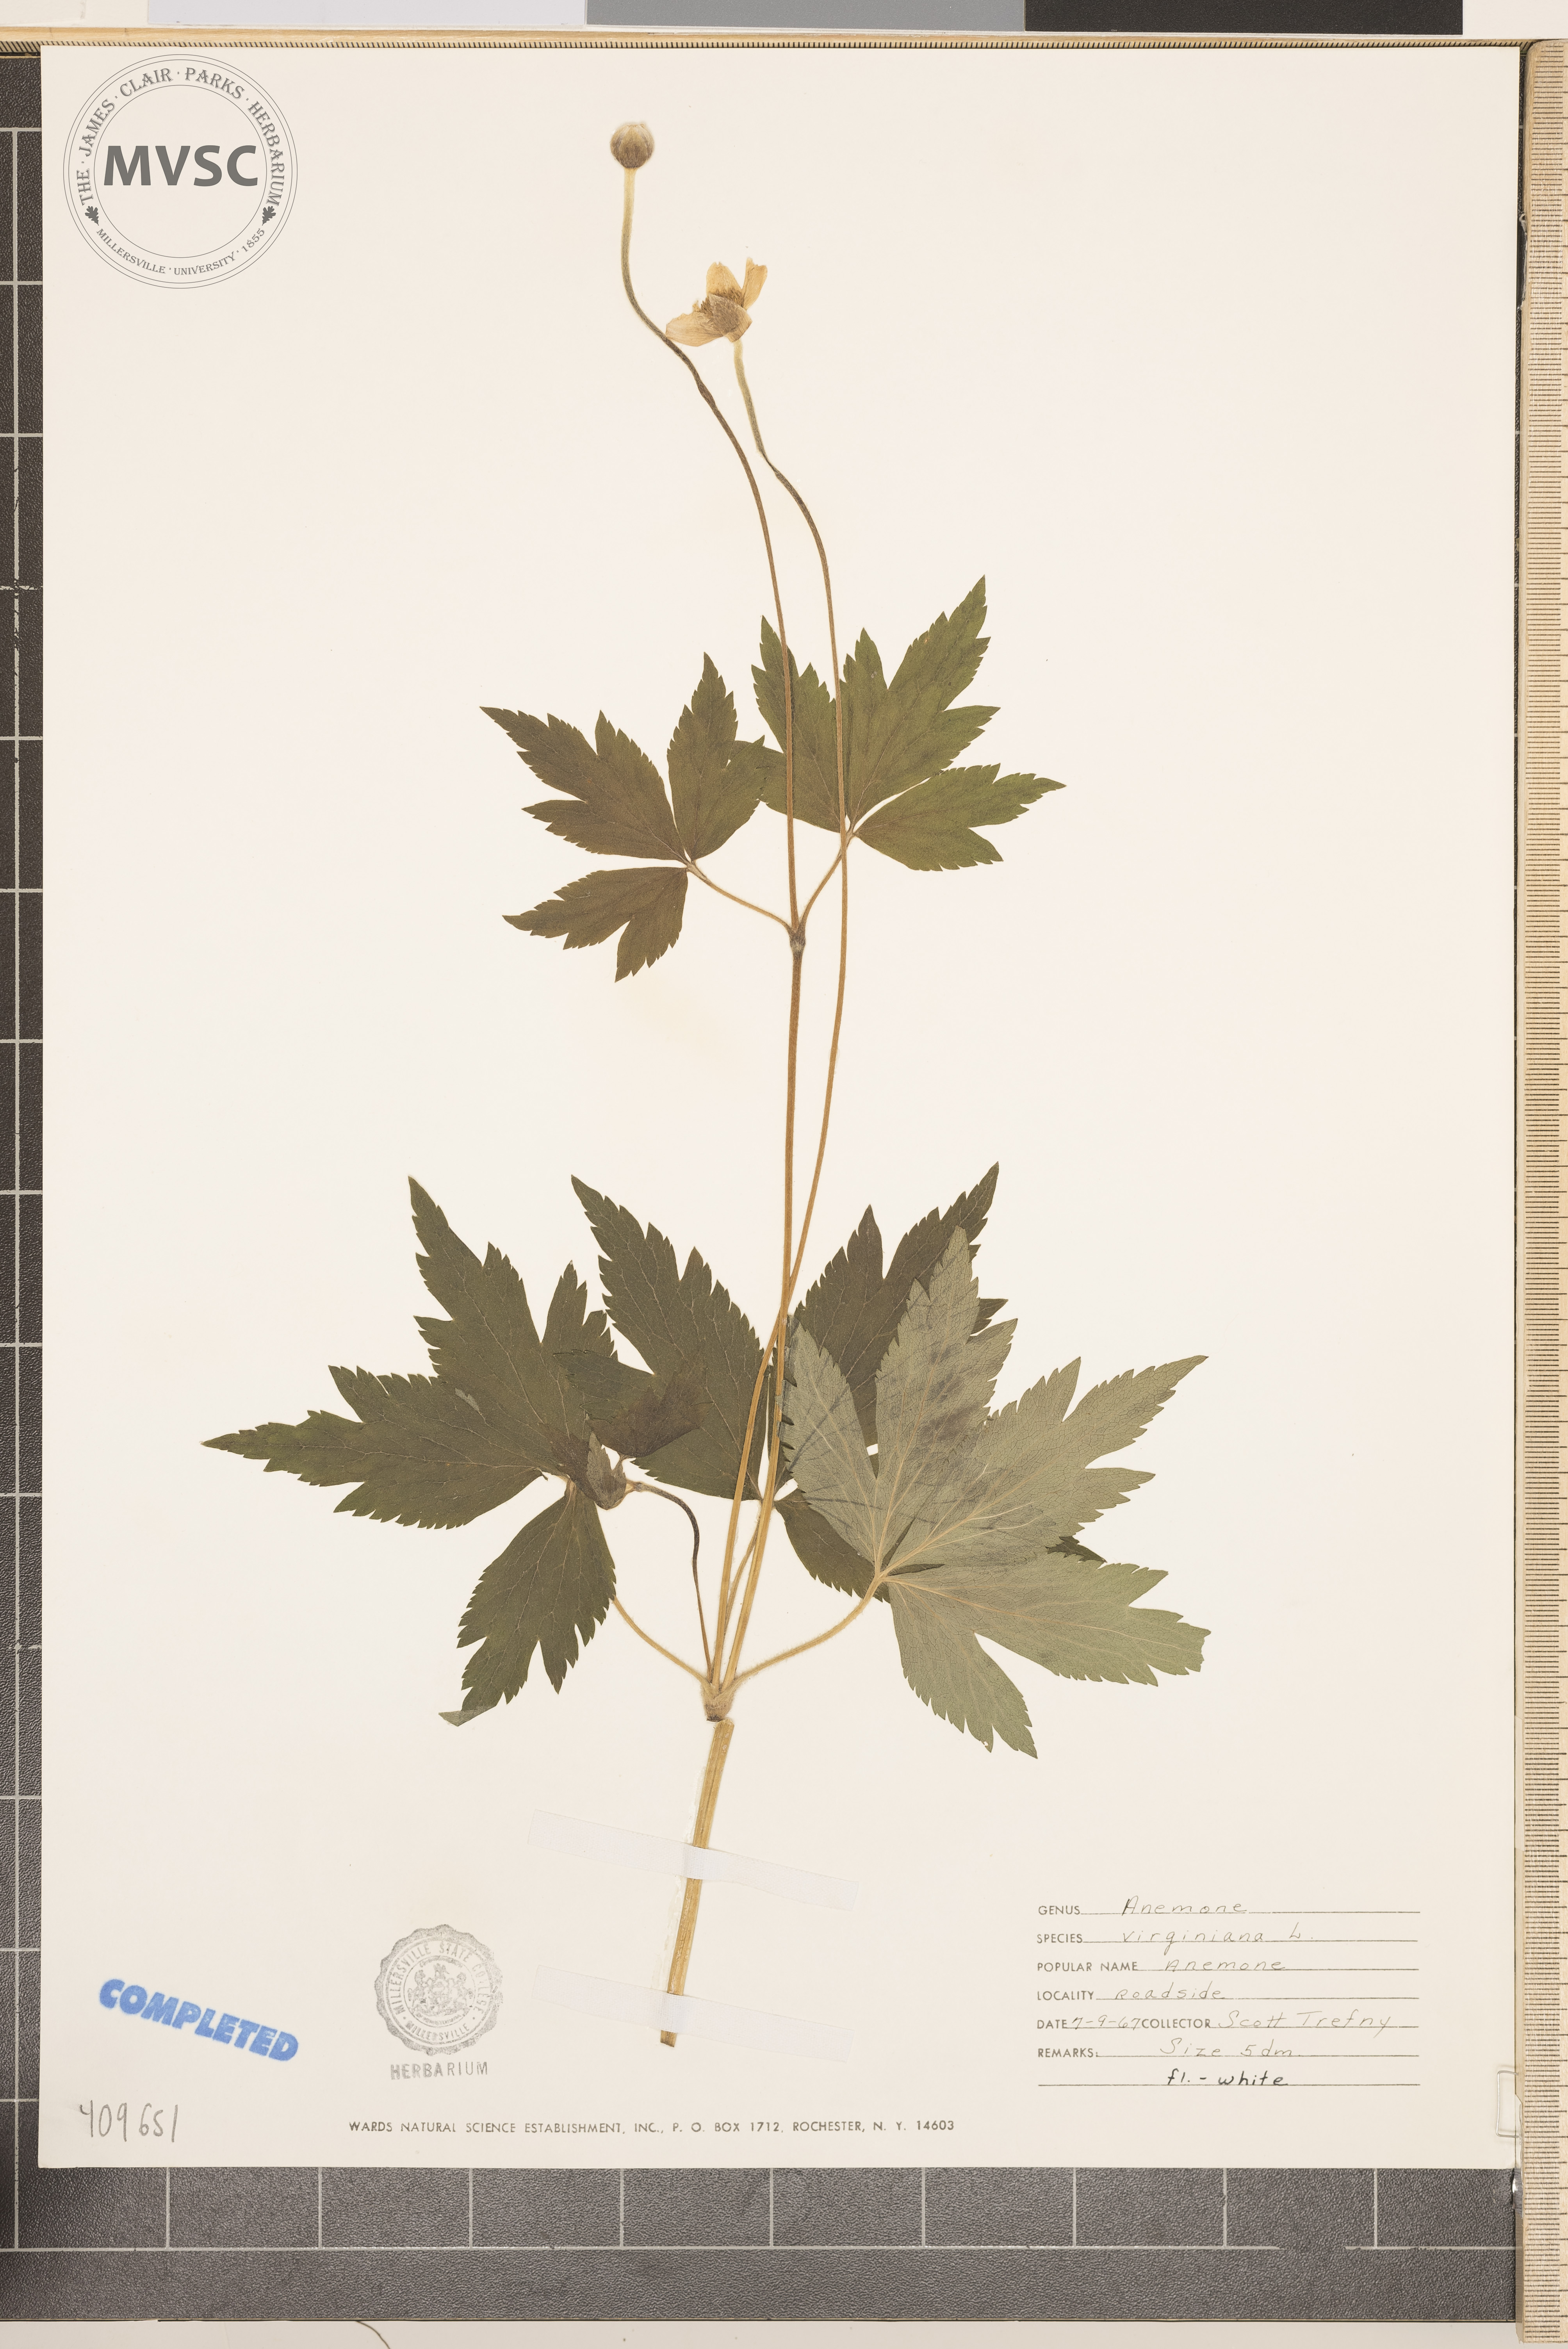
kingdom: Plantae
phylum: Tracheophyta
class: Magnoliopsida
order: Ranunculales
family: Ranunculaceae
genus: Anemone
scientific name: Anemone virginiana
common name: Tall anemone
